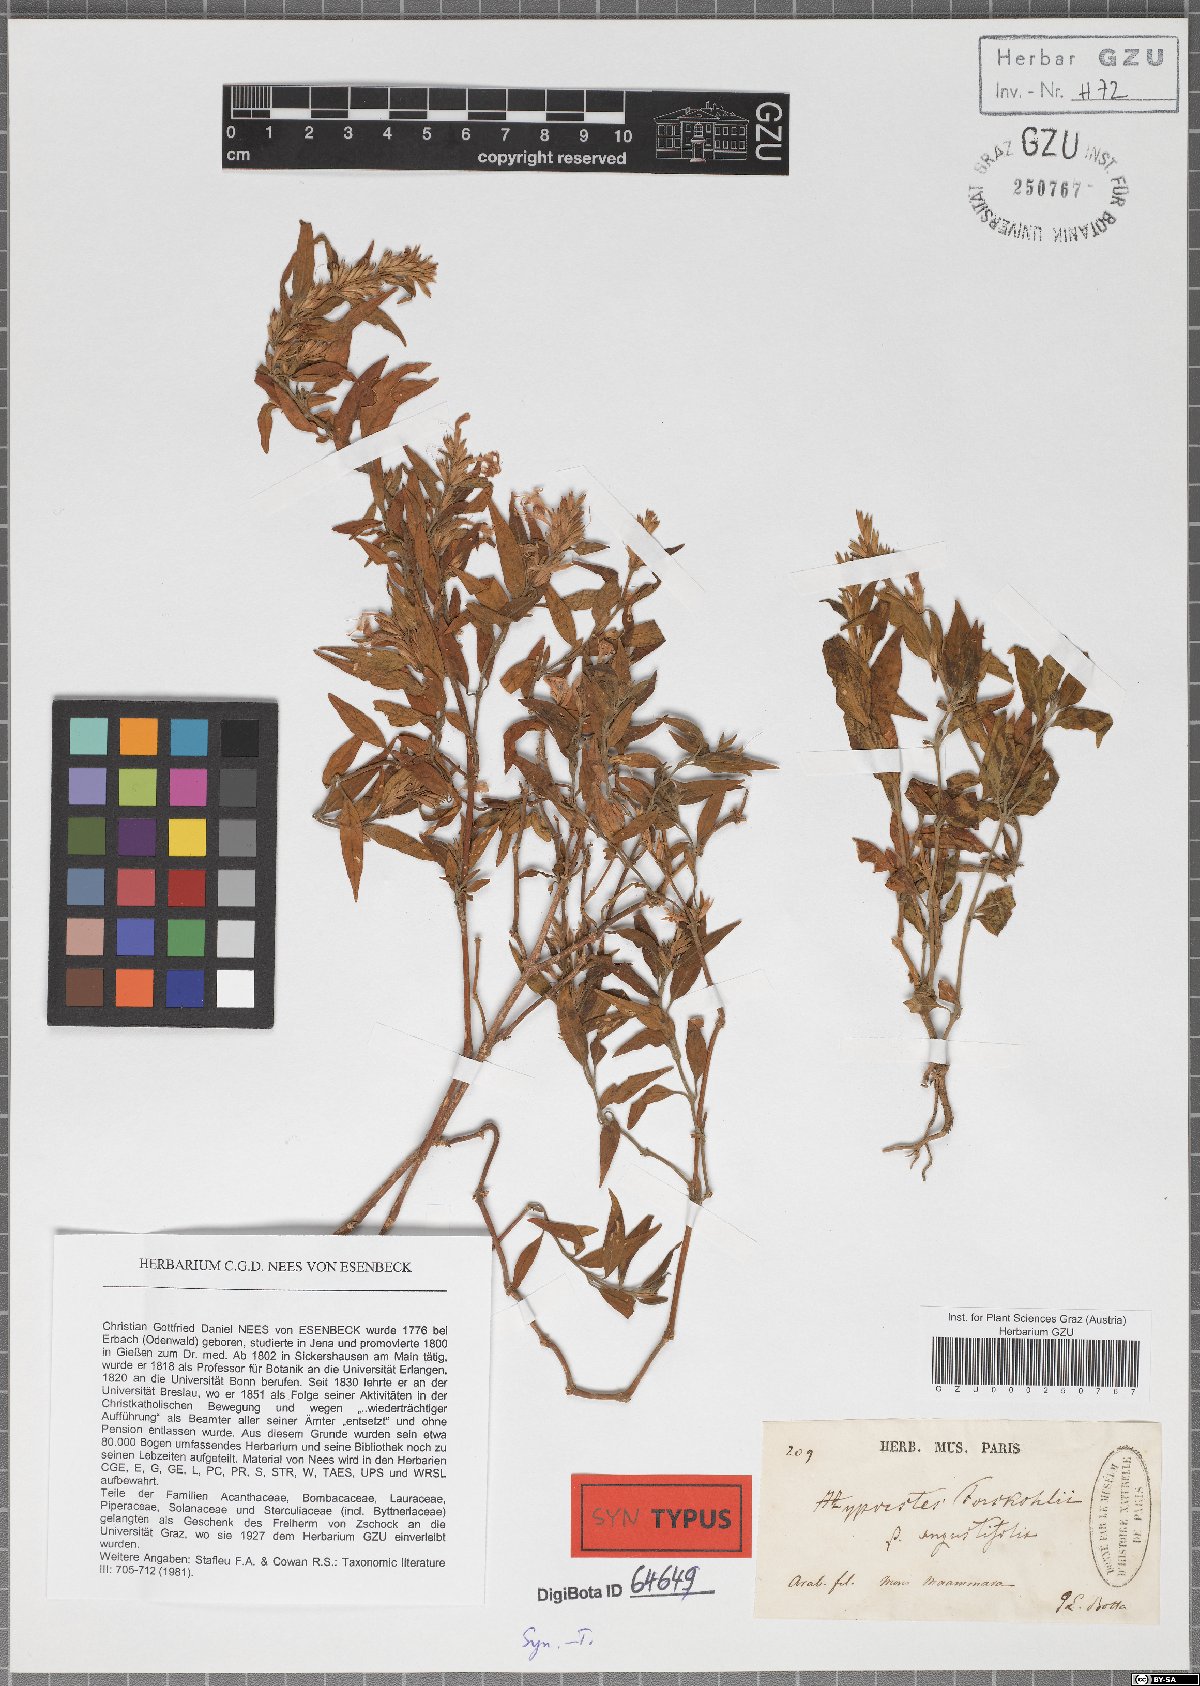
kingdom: Plantae
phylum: Tracheophyta
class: Magnoliopsida
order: Lamiales
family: Acanthaceae
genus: Hypoestes
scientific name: Hypoestes forskaolii
